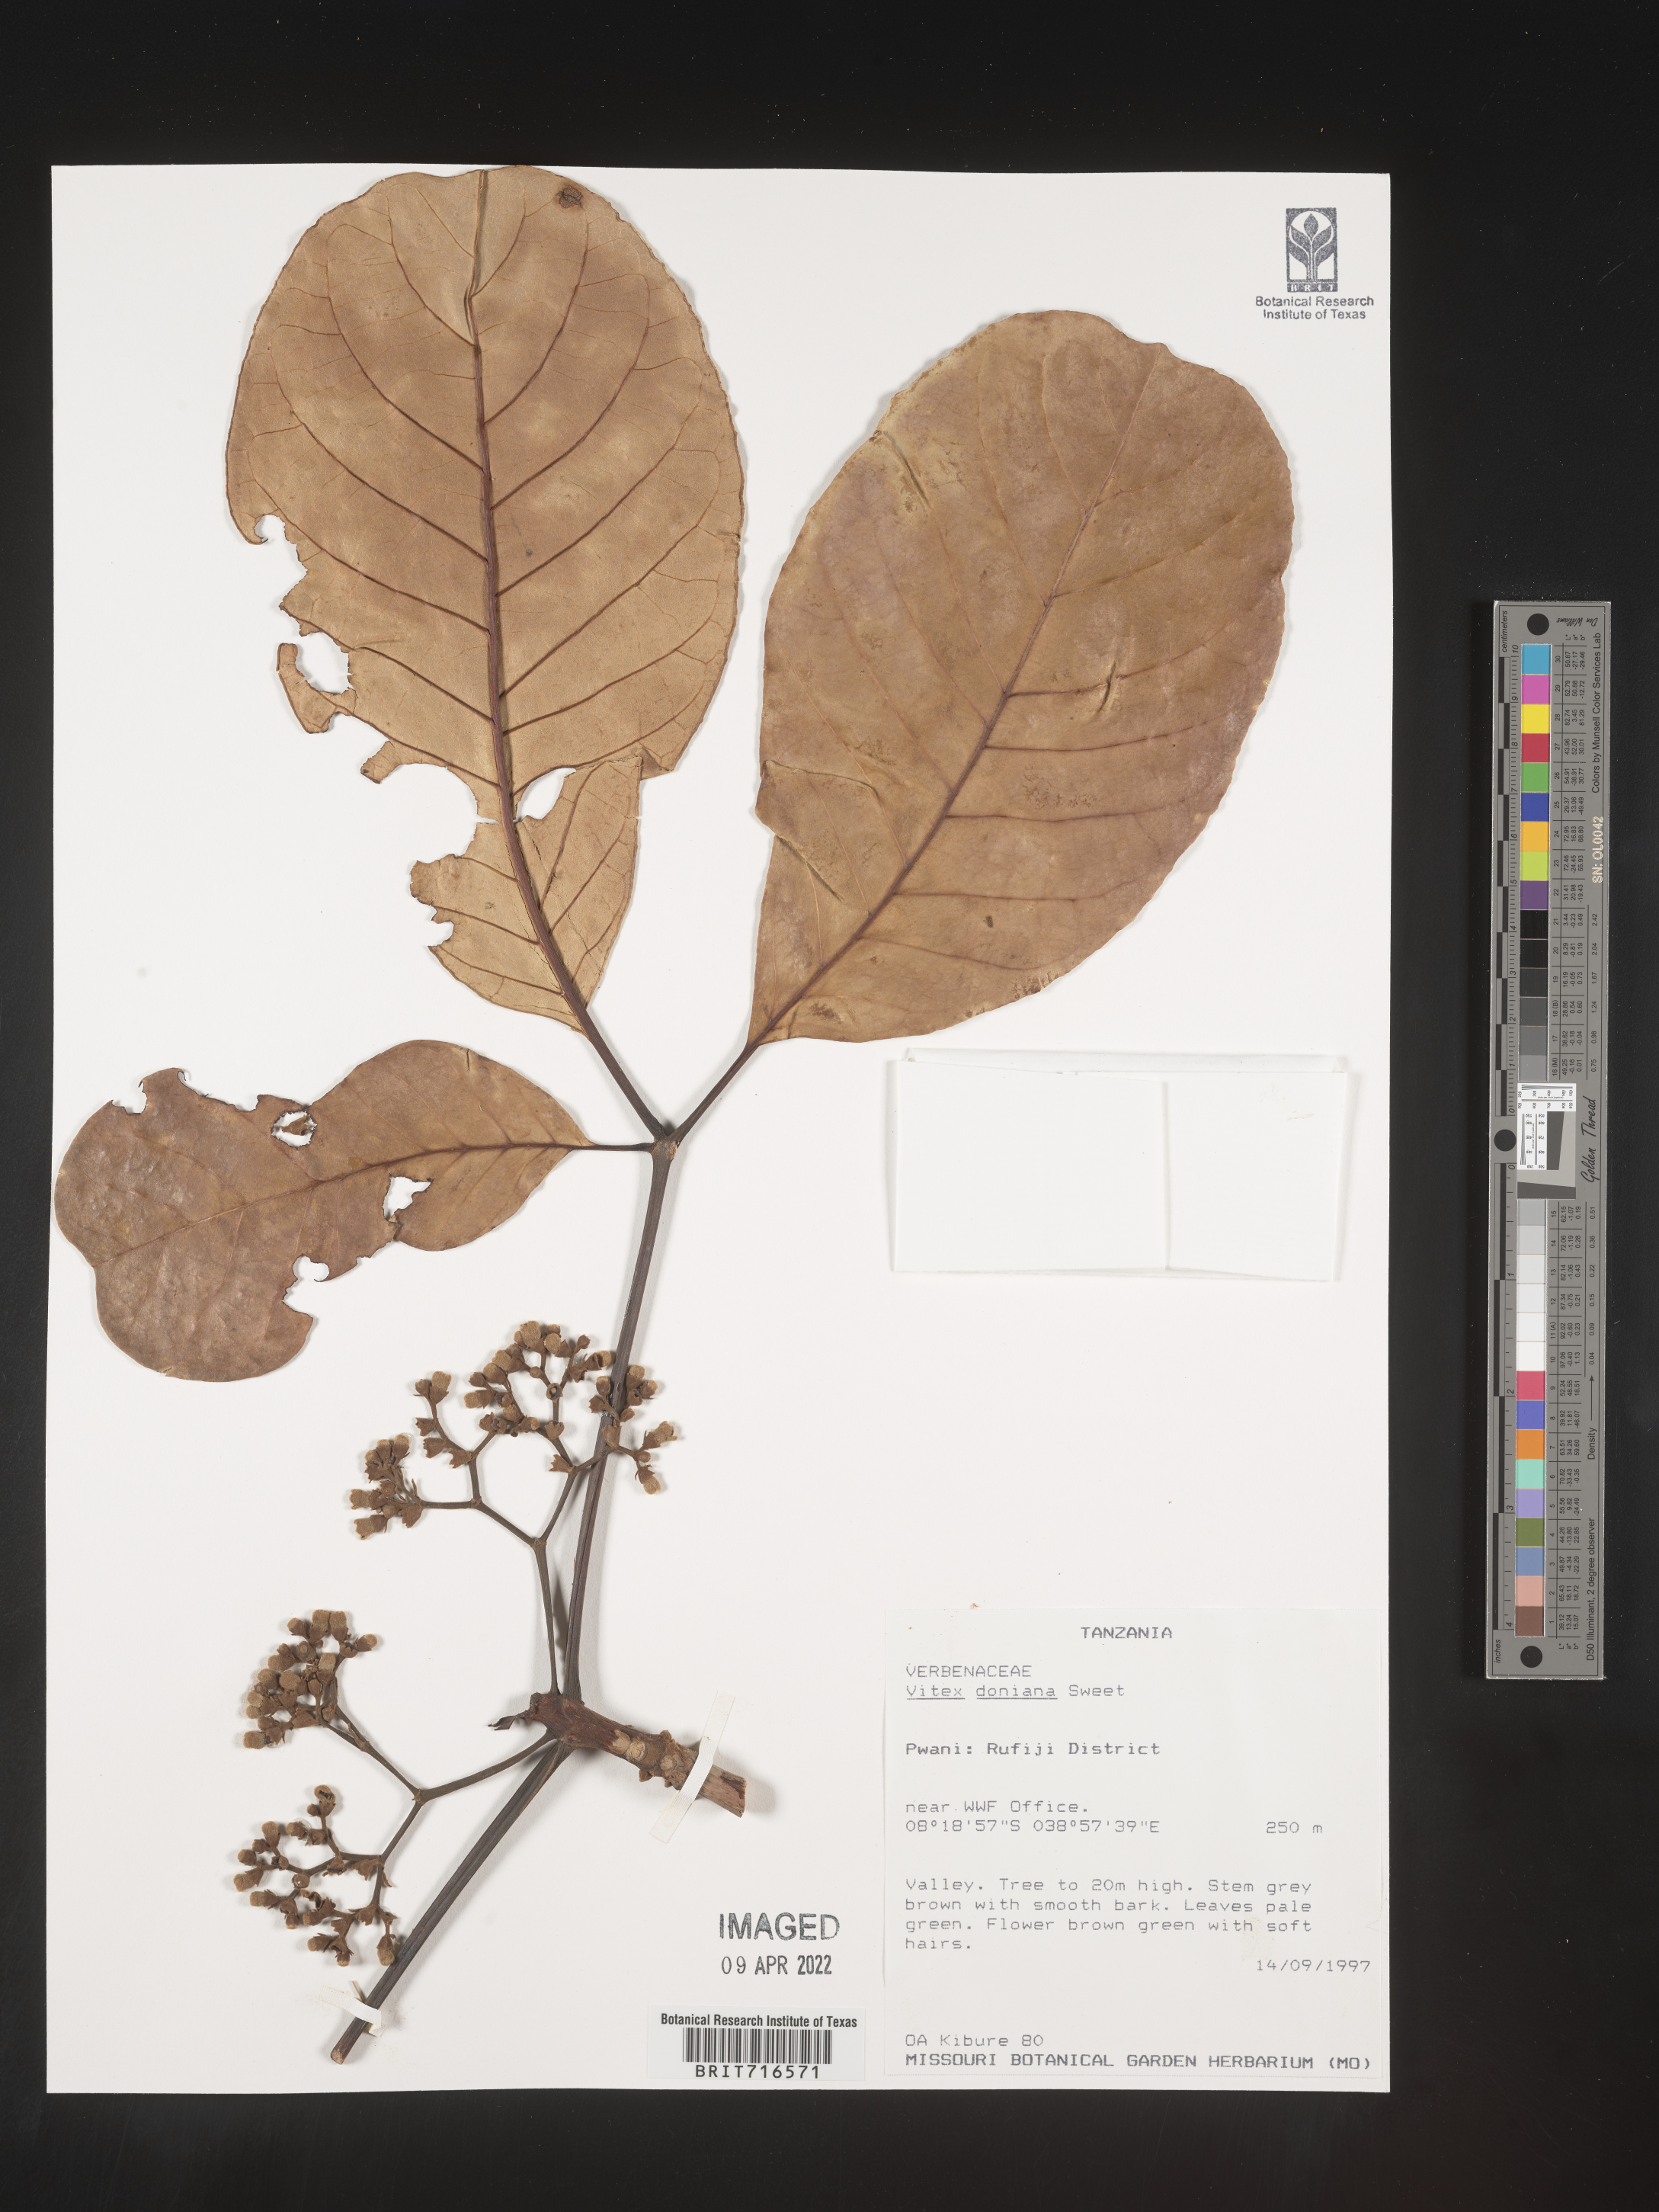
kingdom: Plantae
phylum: Tracheophyta
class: Magnoliopsida
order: Lamiales
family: Lamiaceae
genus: Vitex
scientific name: Vitex
